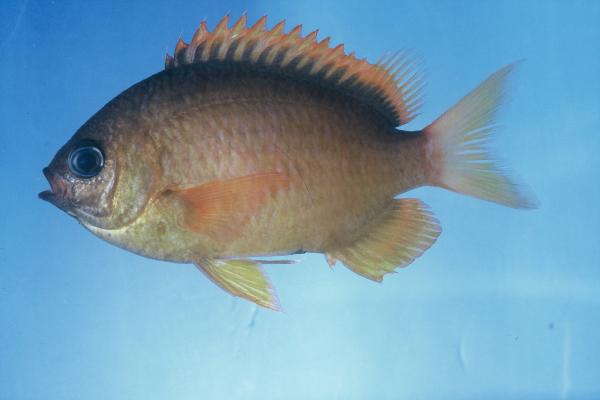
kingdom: Animalia
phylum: Chordata
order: Perciformes
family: Pomacentridae
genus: Chromis
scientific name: Chromis pembae
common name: Pemba chromis
